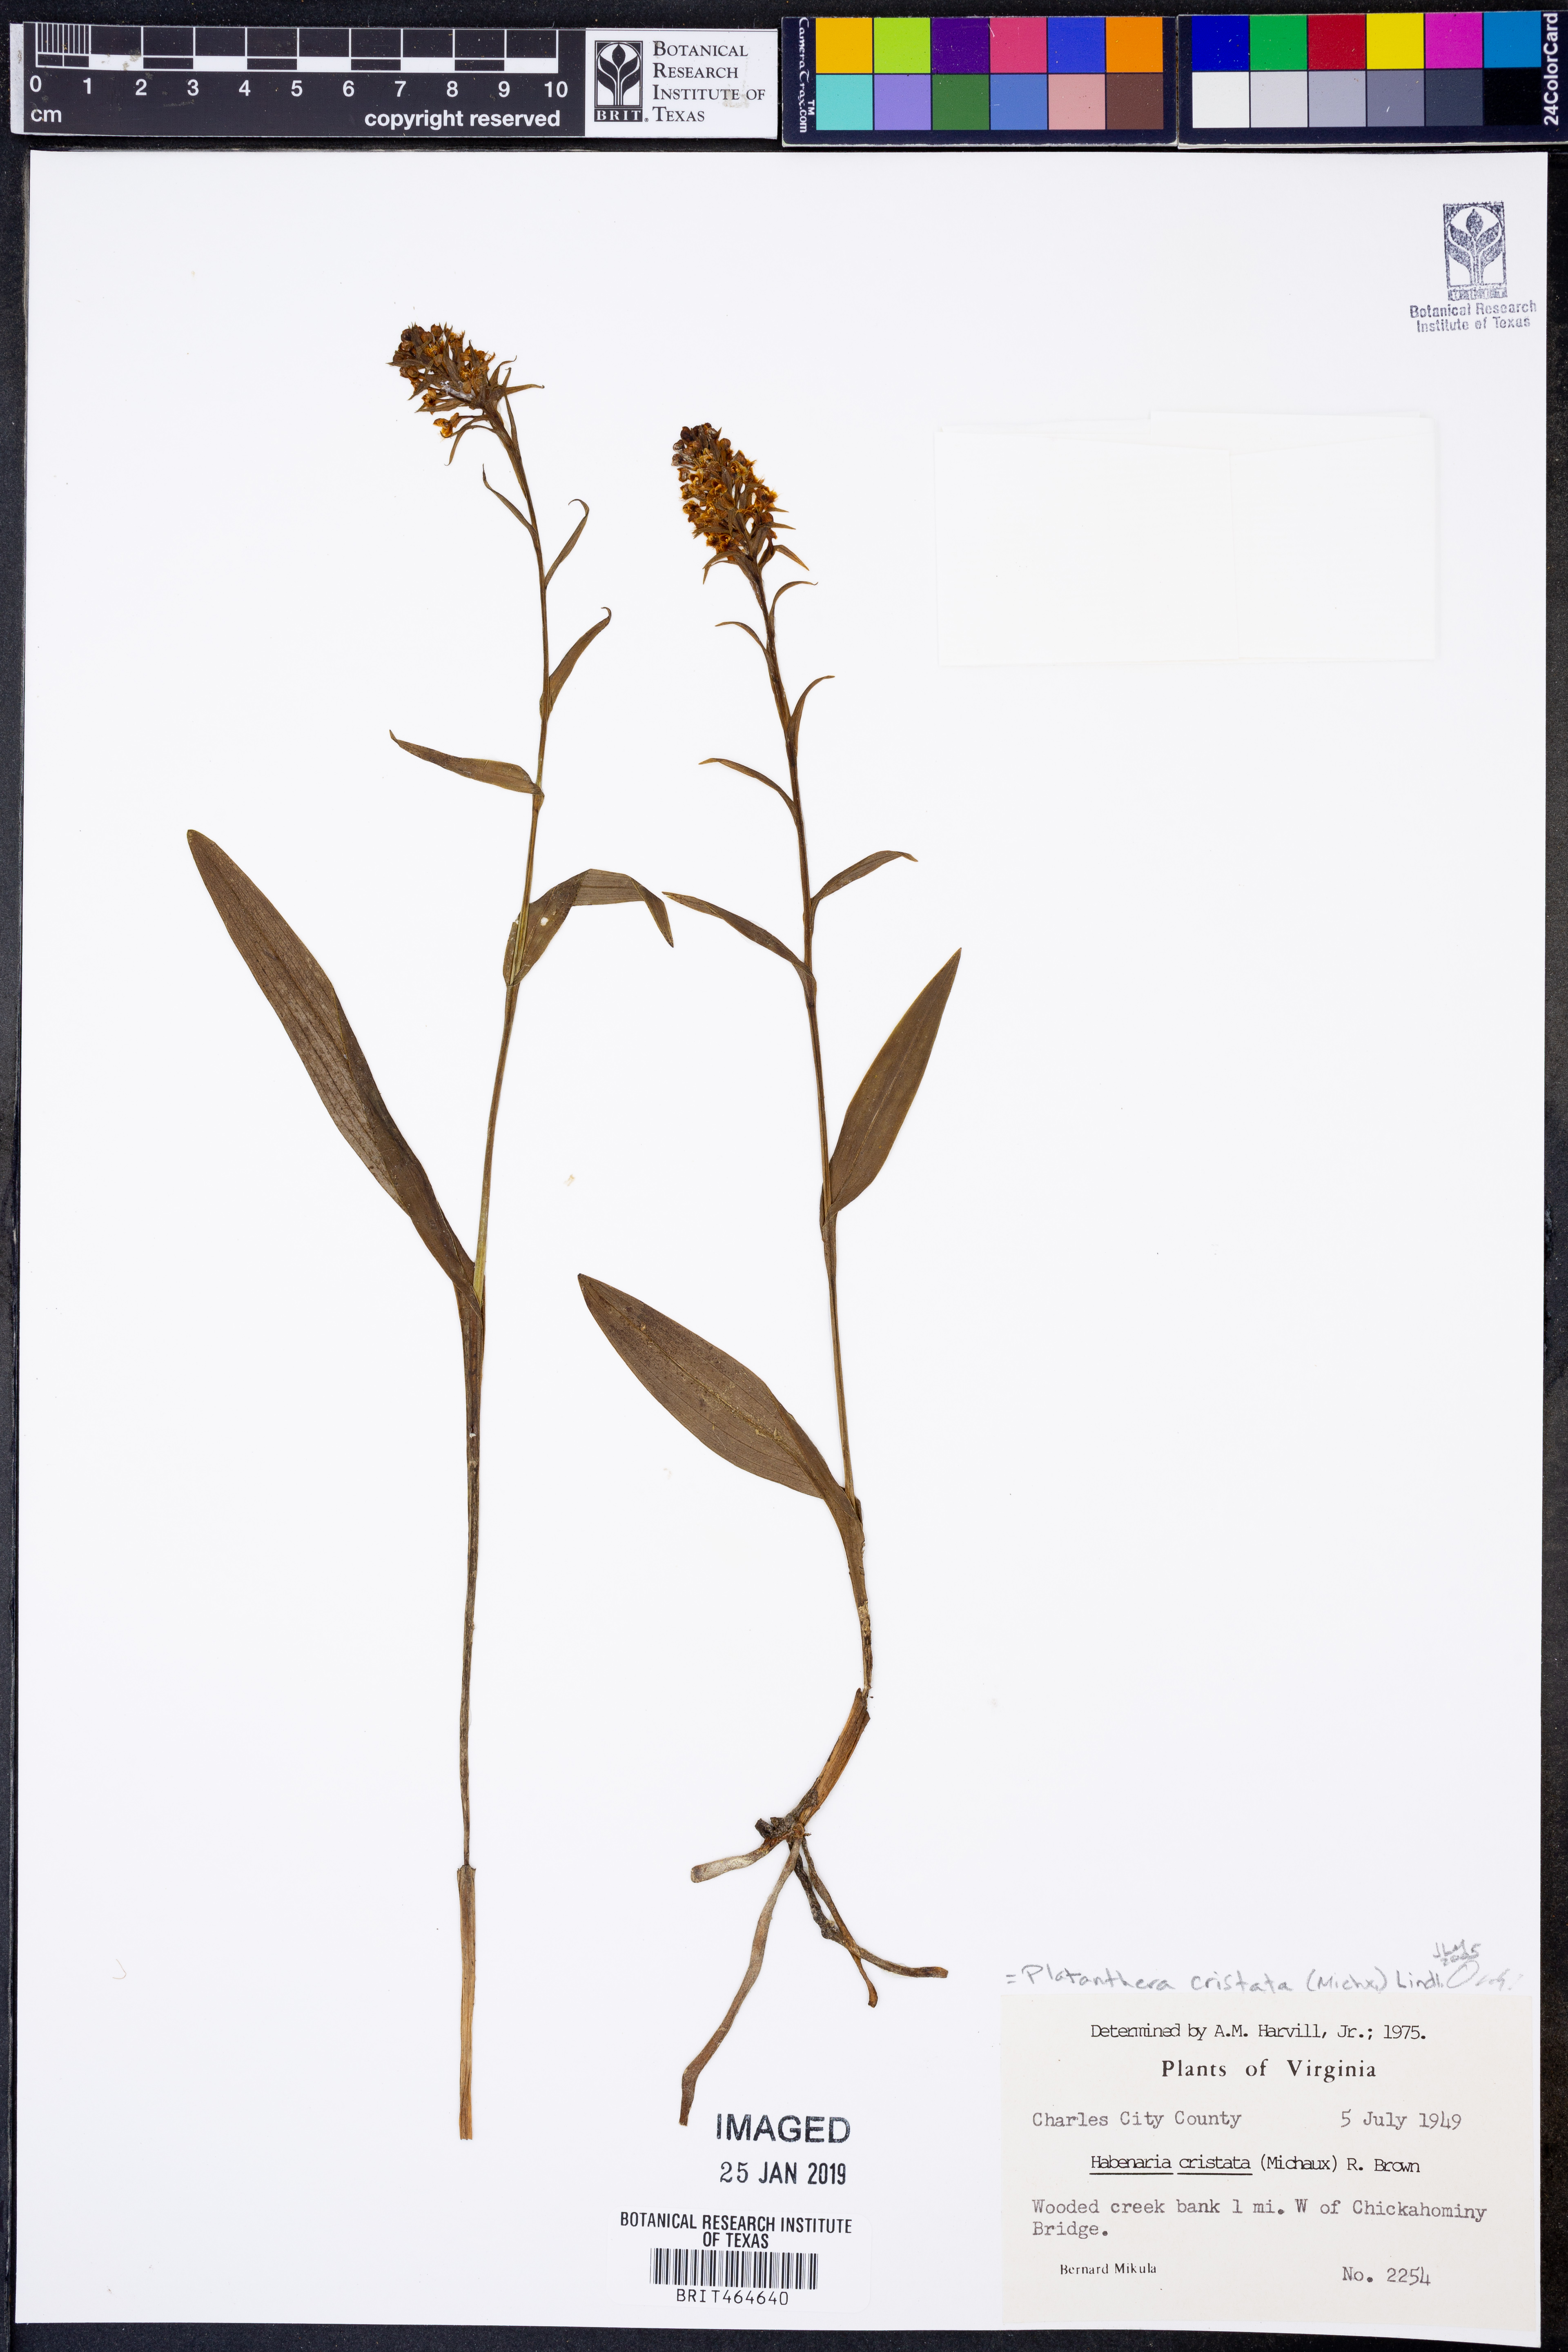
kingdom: Plantae
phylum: Tracheophyta
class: Liliopsida
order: Asparagales
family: Orchidaceae
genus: Platanthera
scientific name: Platanthera cristata
